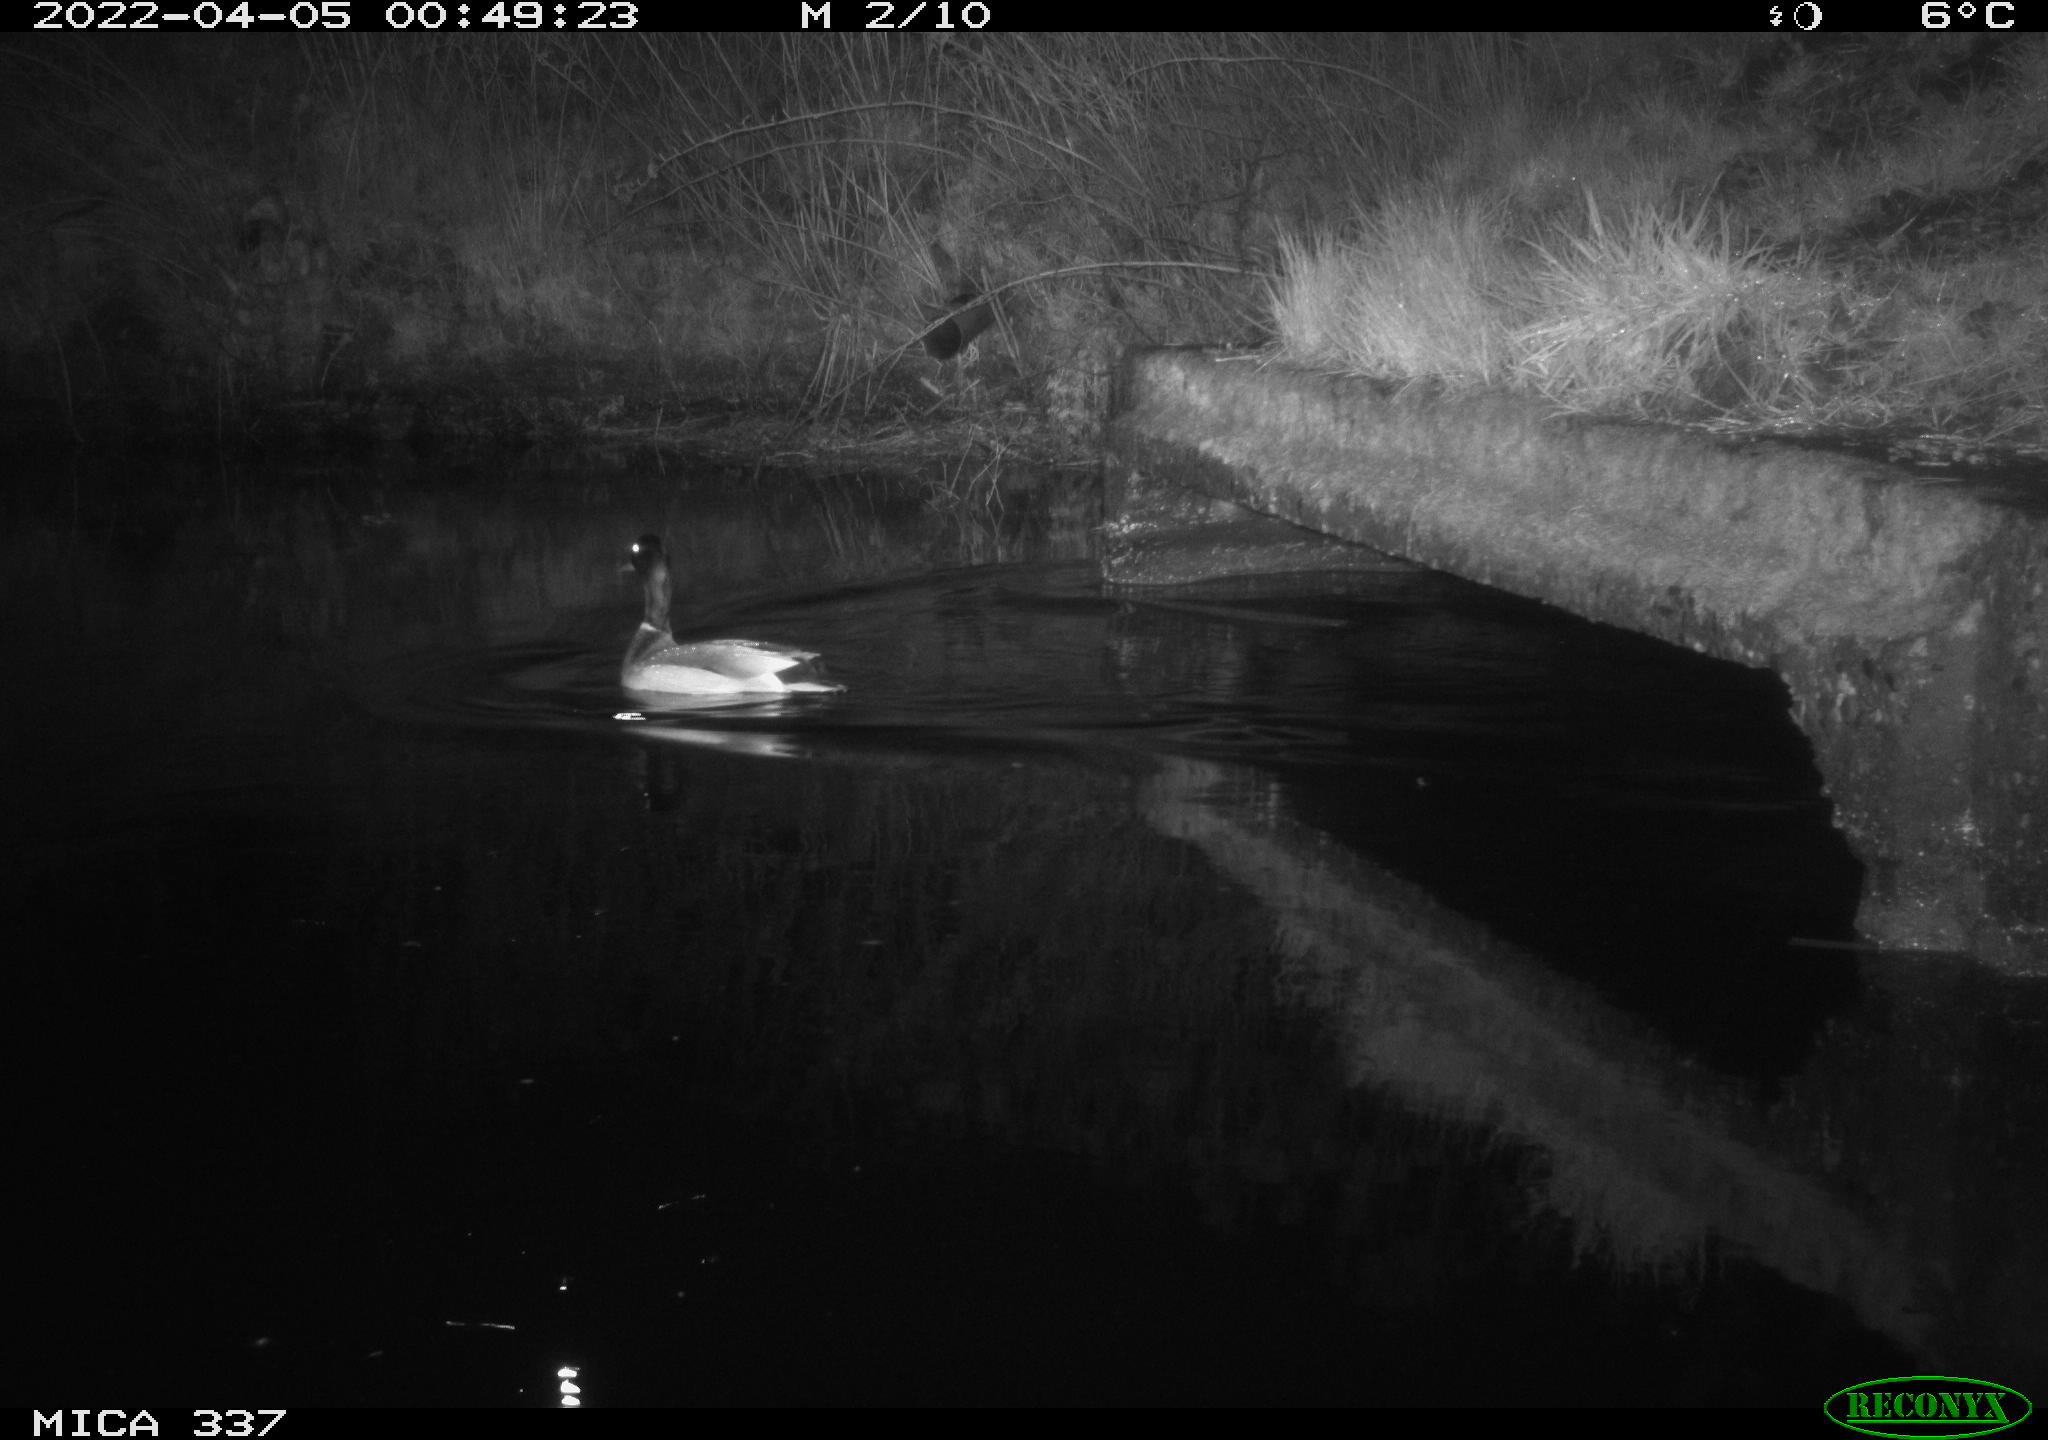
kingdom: Animalia
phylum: Chordata
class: Aves
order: Anseriformes
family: Anatidae
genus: Anas
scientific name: Anas platyrhynchos
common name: Mallard
